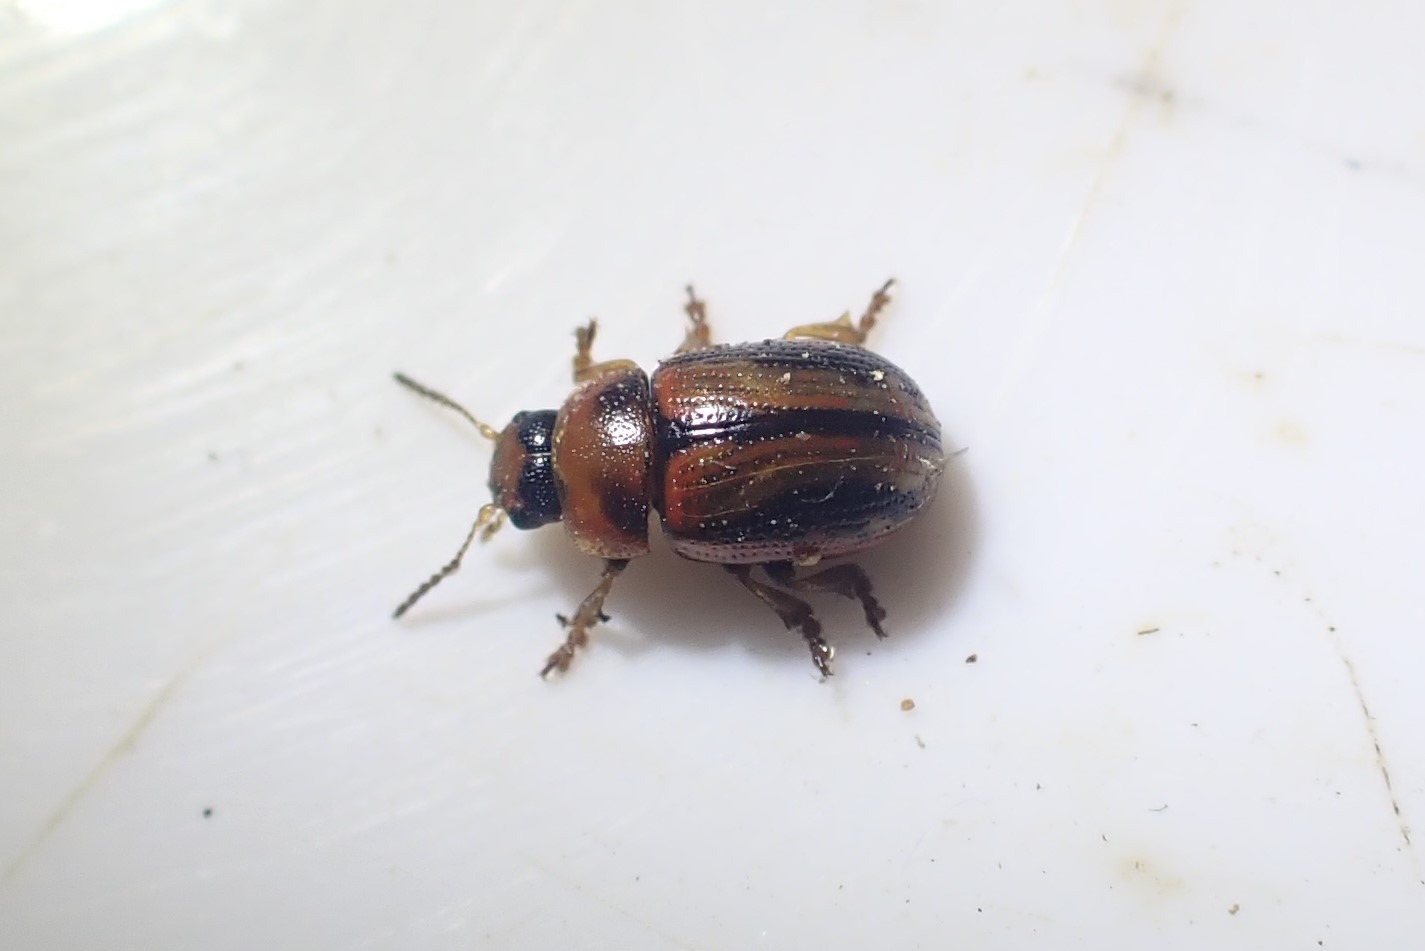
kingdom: Animalia
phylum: Arthropoda
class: Insecta
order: Coleoptera
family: Chrysomelidae
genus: Gonioctena
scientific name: Gonioctena olivacea
